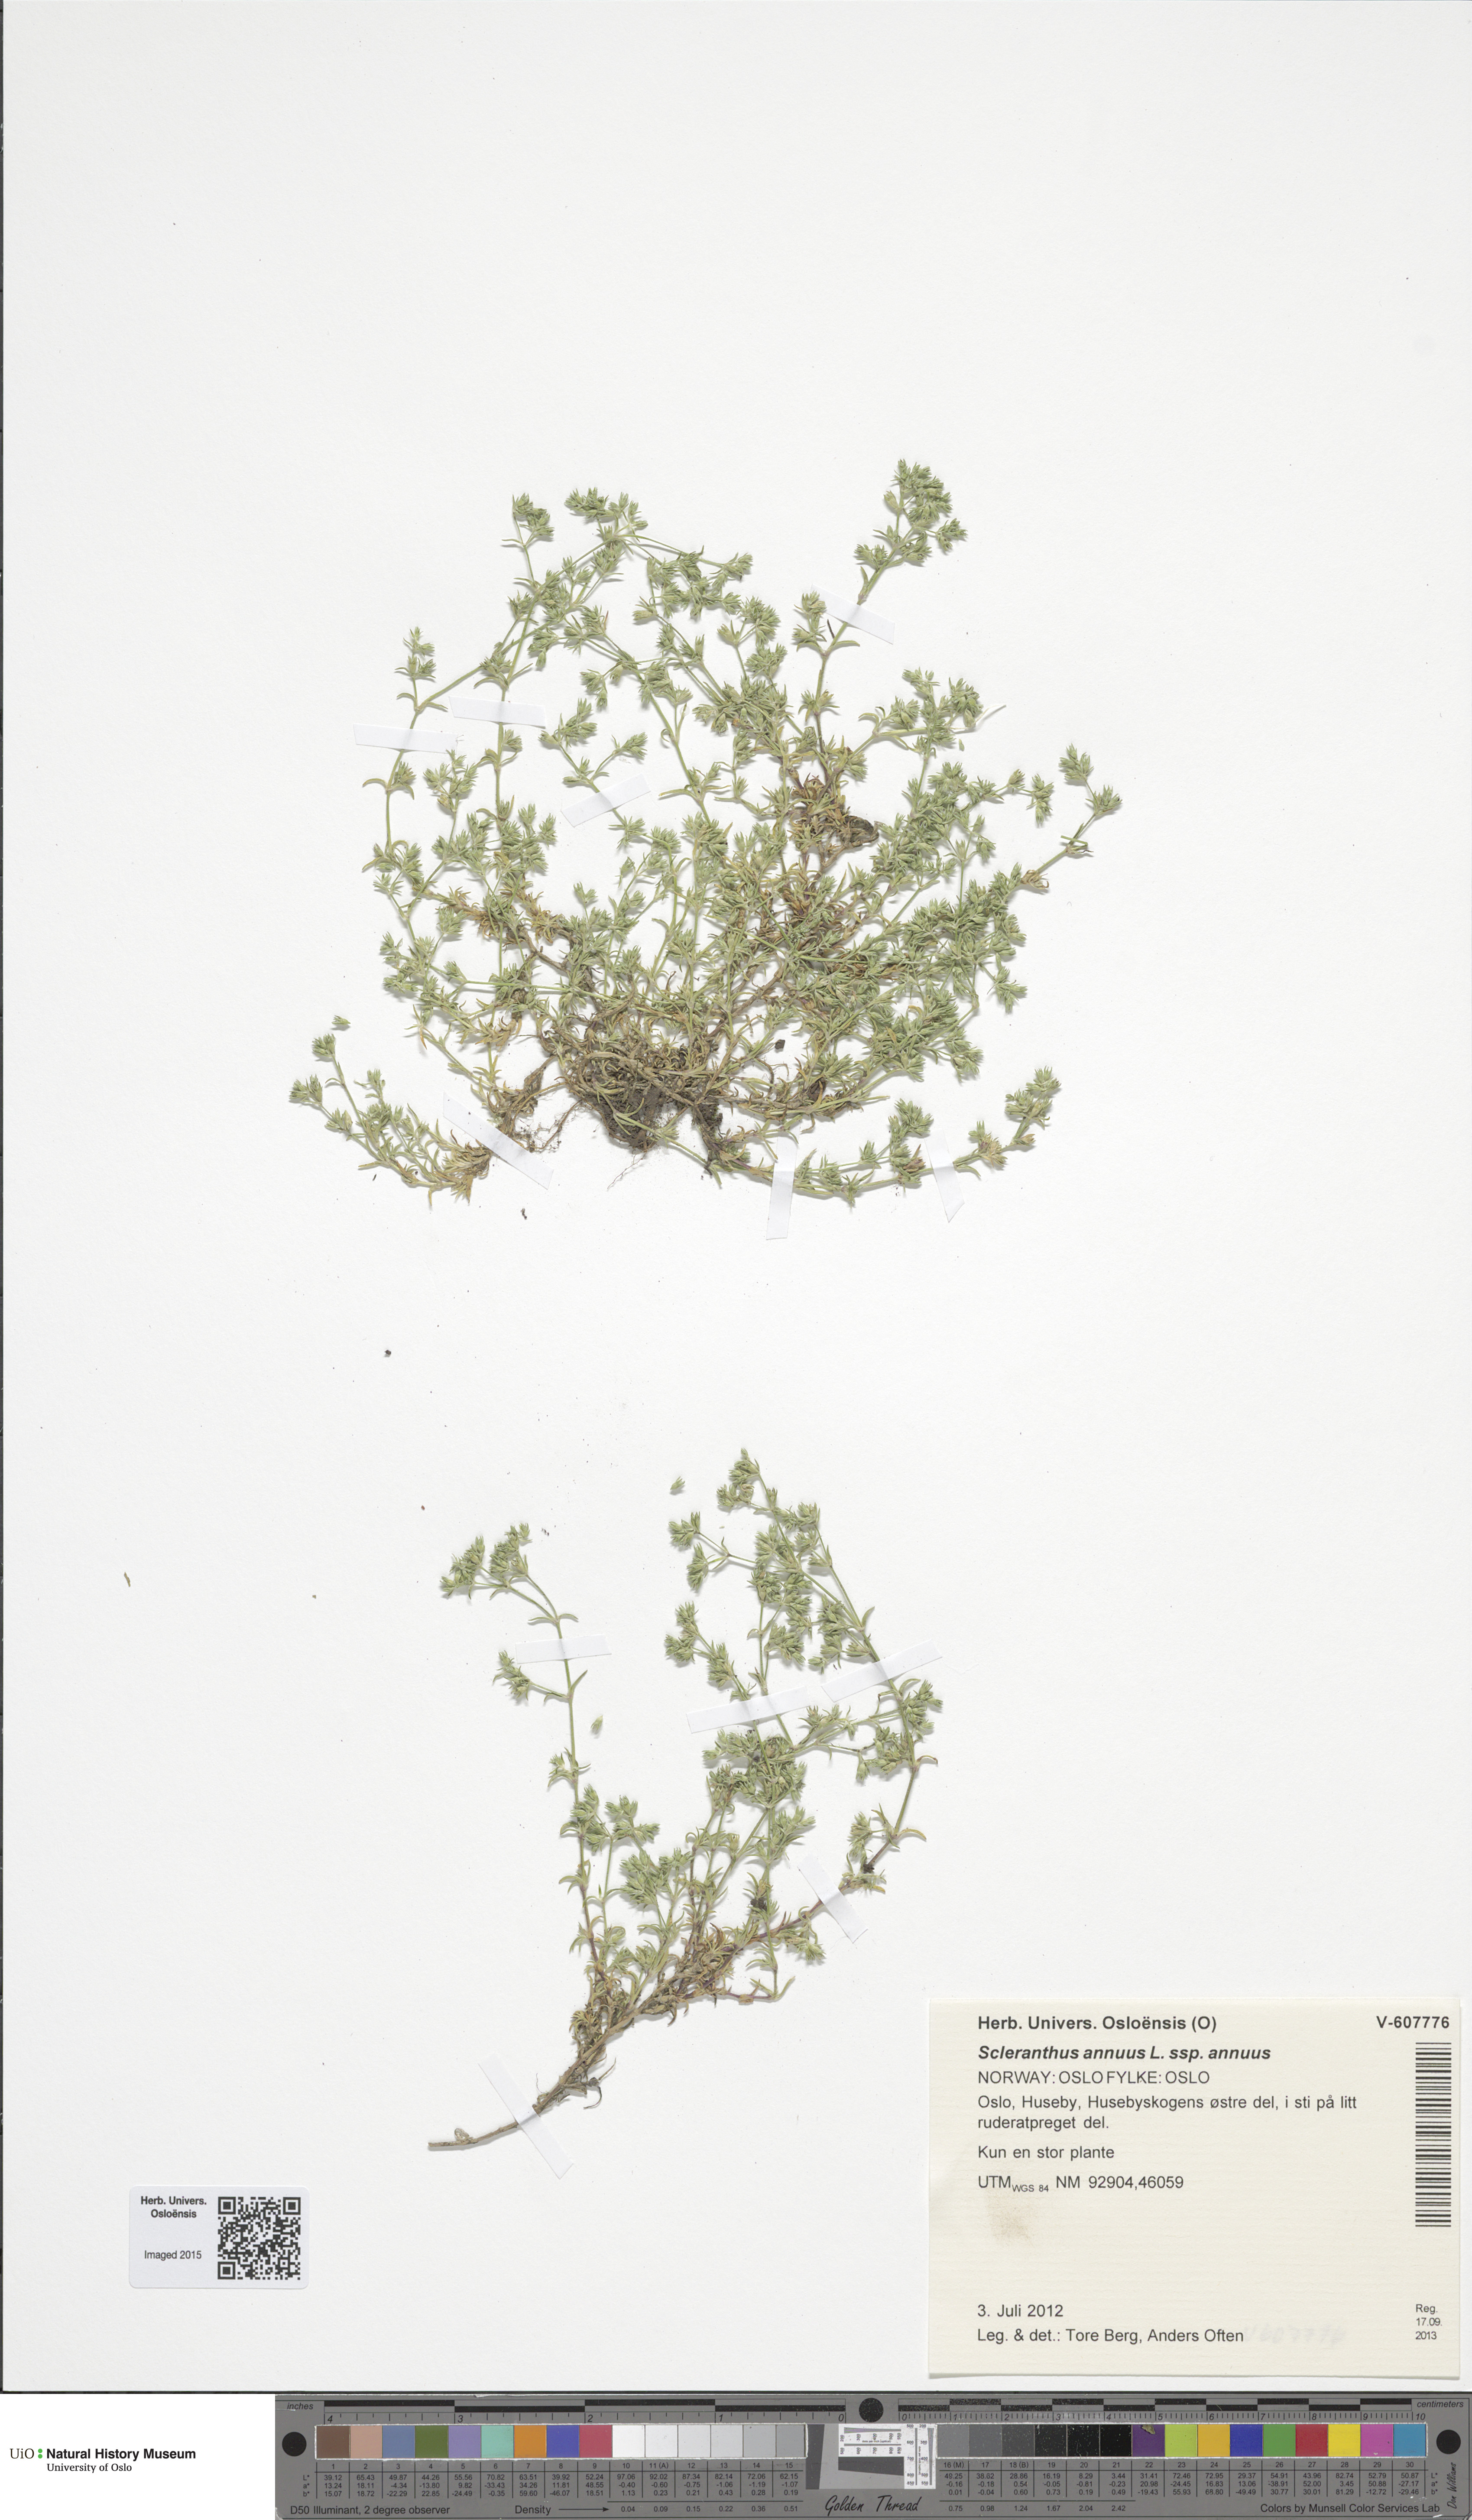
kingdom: Plantae
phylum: Tracheophyta
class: Magnoliopsida
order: Caryophyllales
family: Caryophyllaceae
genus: Scleranthus
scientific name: Scleranthus annuus
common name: Annual knawel
